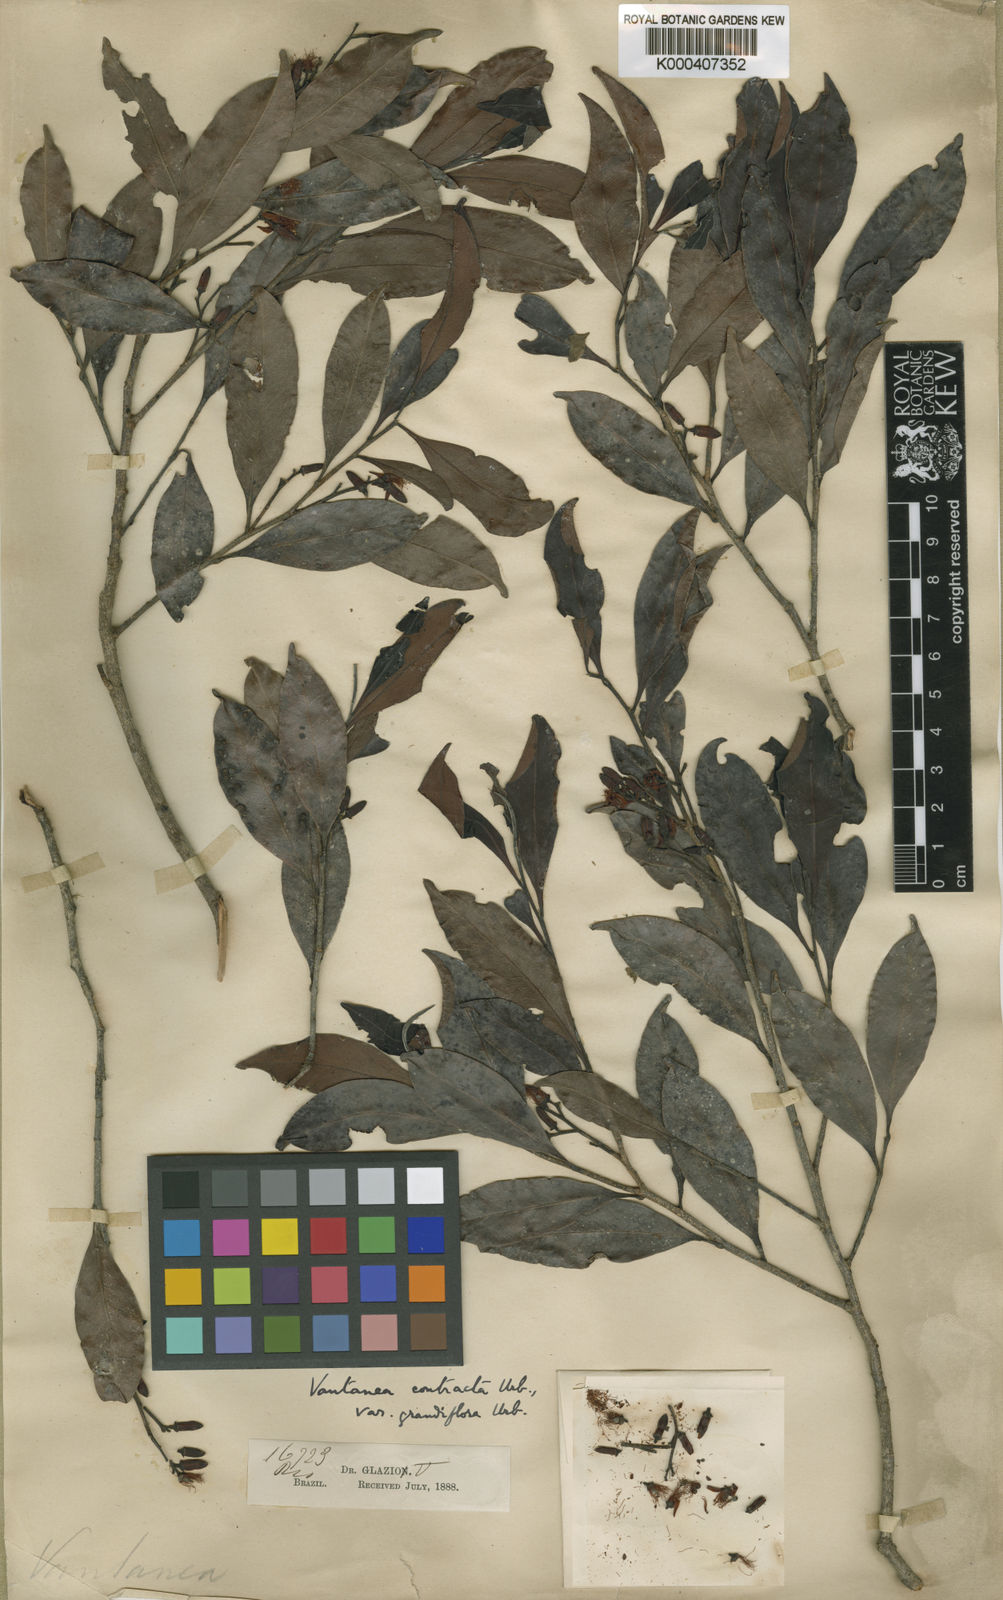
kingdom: Plantae
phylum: Tracheophyta
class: Magnoliopsida
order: Malpighiales
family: Humiriaceae
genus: Vantanea
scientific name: Vantanea compacta
